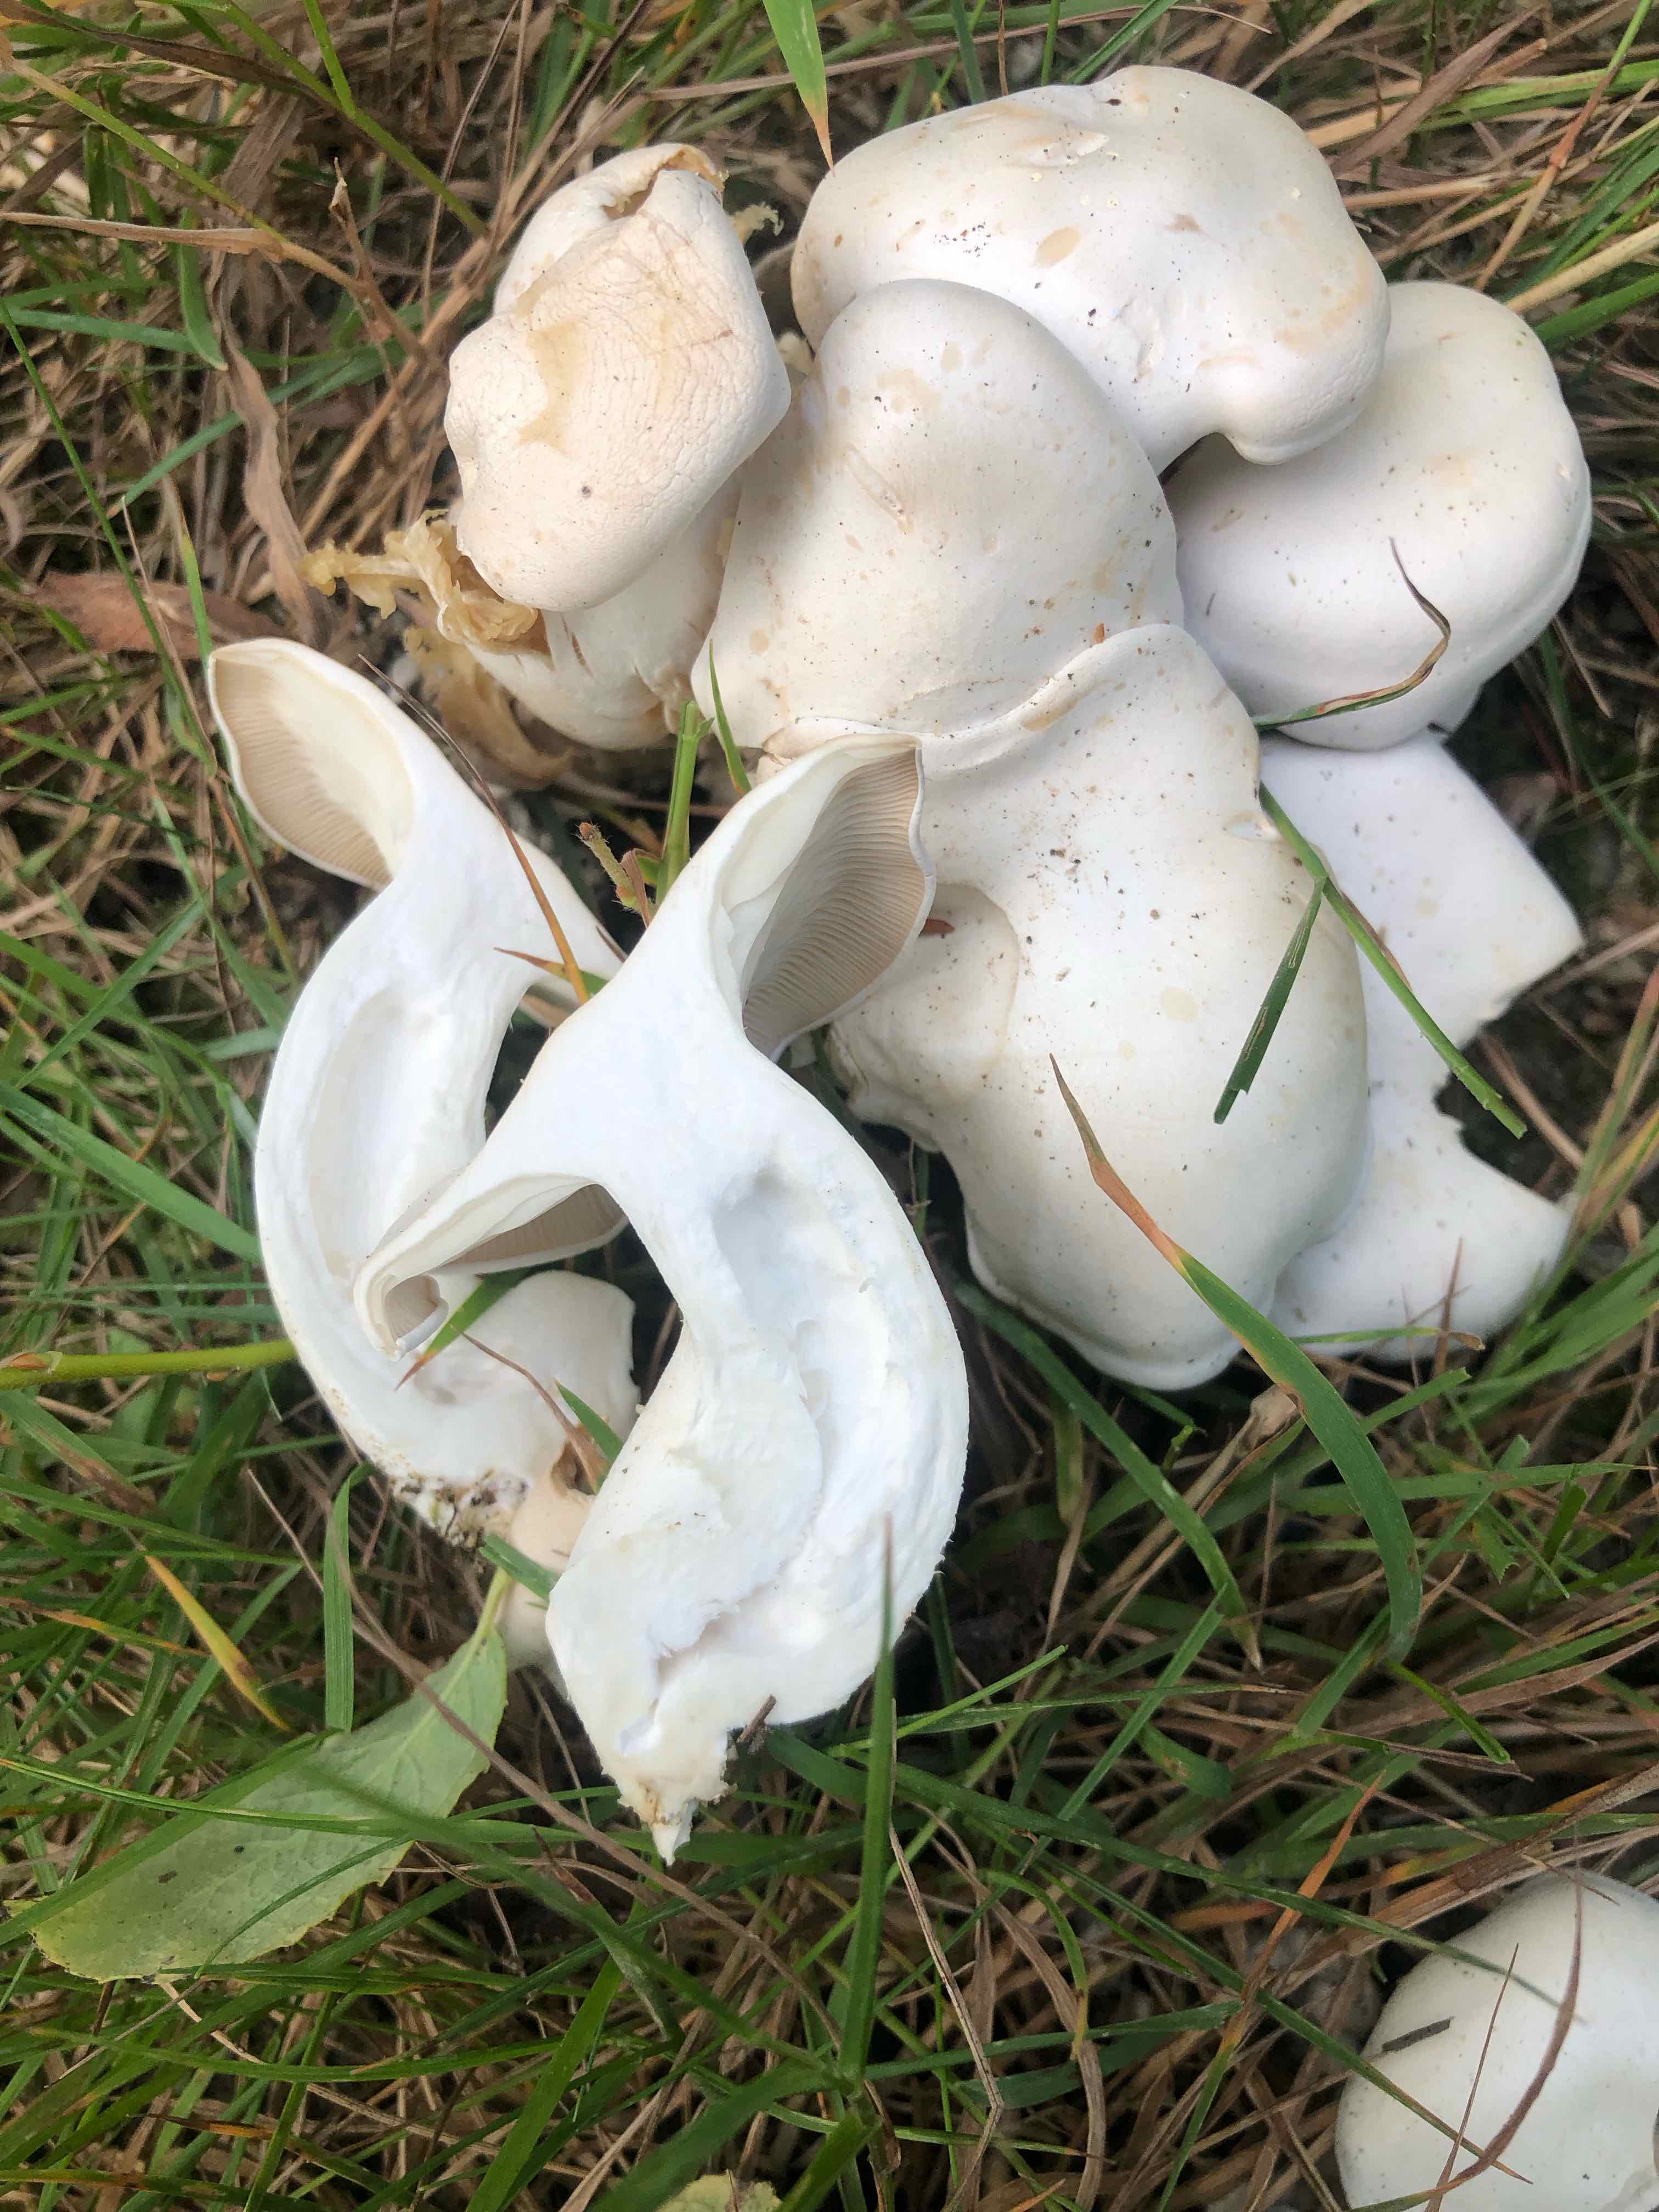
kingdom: Fungi
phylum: Basidiomycota
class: Agaricomycetes
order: Agaricales
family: Tricholomataceae
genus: Leucocybe
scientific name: Leucocybe connata
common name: knippe-tragthat
